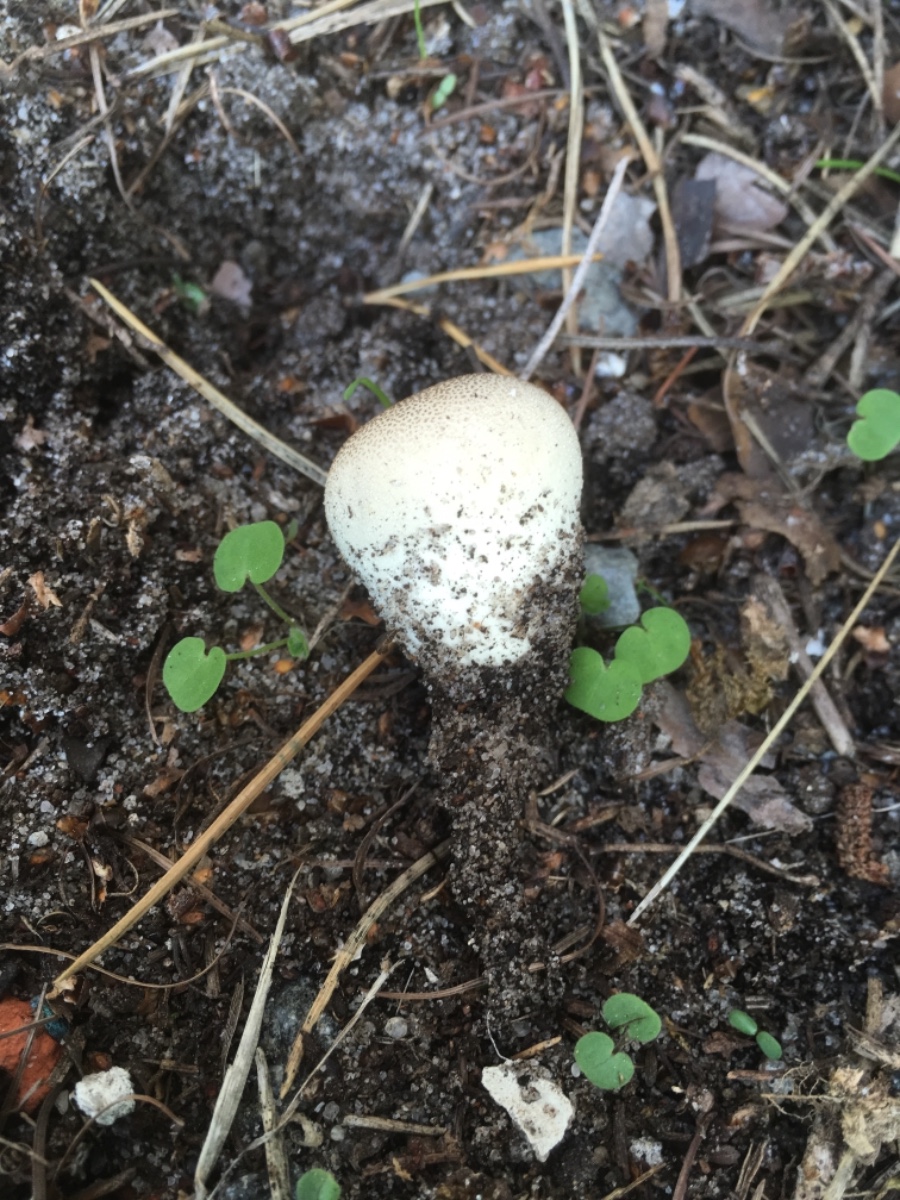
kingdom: Fungi
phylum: Basidiomycota
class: Agaricomycetes
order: Agaricales
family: Agaricaceae
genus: Lycoperdon
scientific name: Lycoperdon
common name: støvbold
